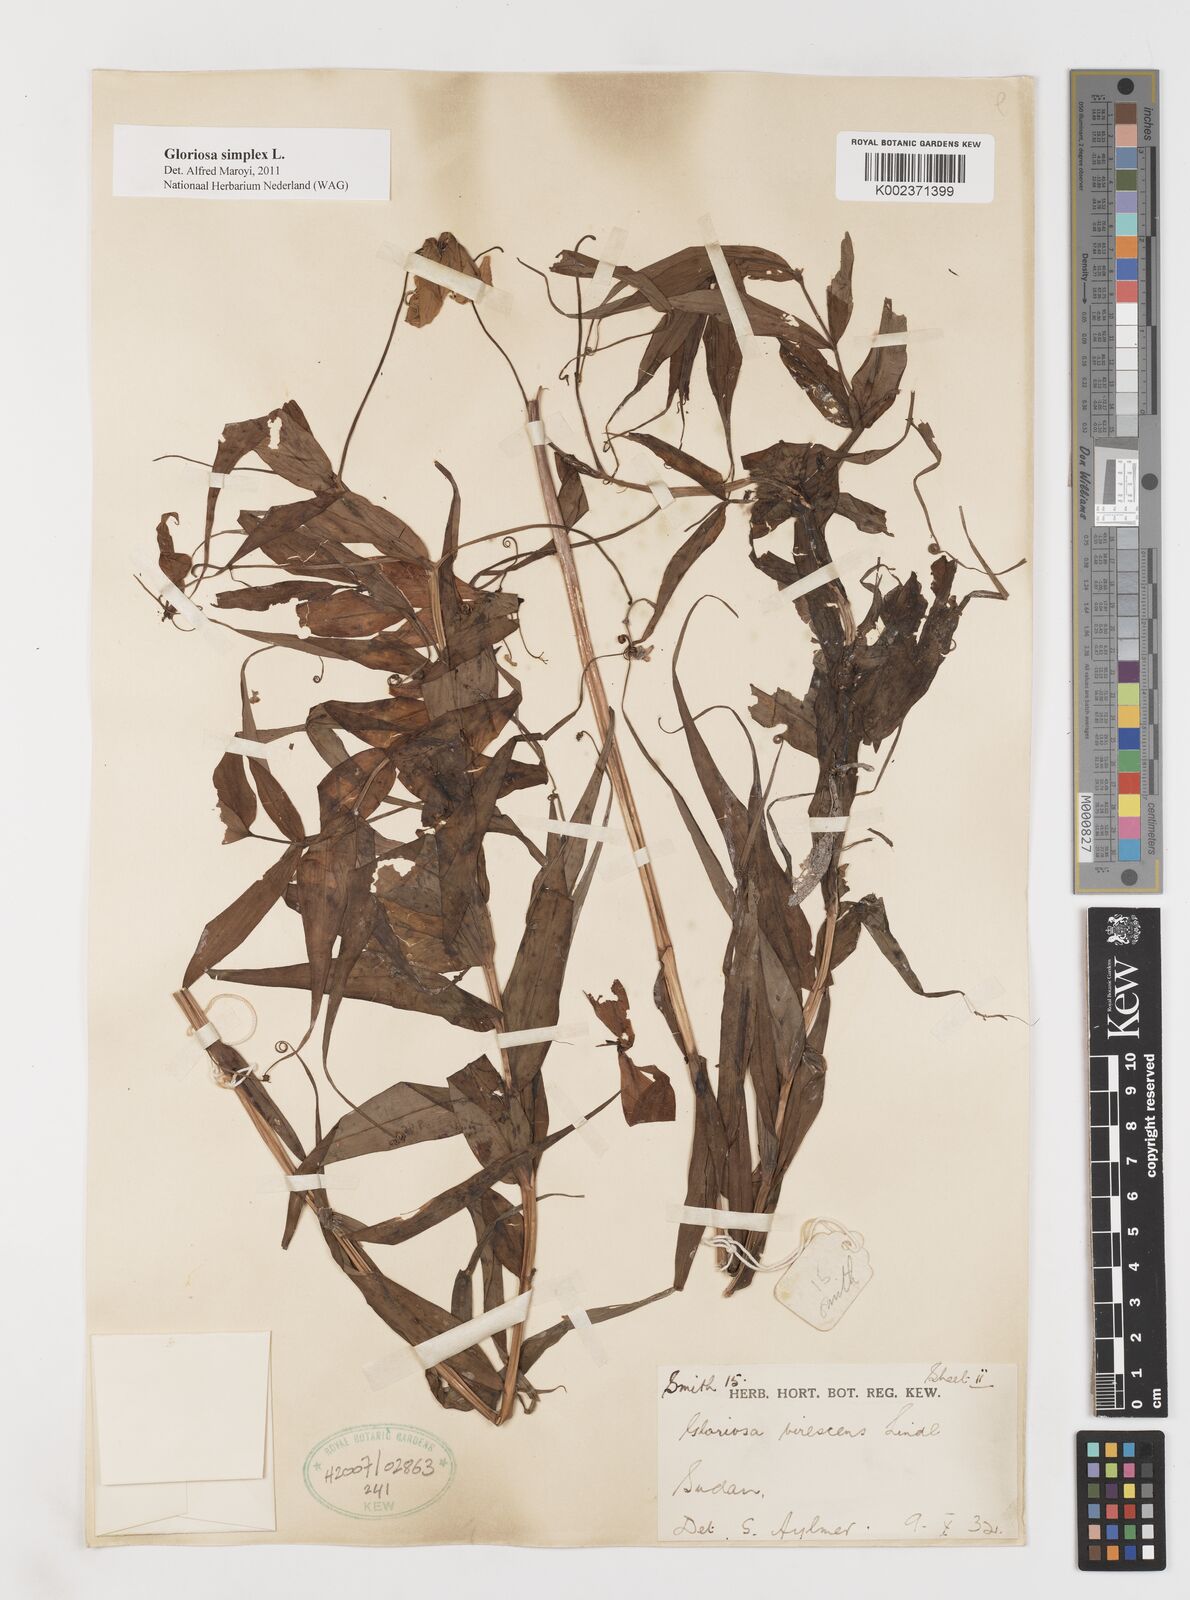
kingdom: Plantae
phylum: Tracheophyta
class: Liliopsida
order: Liliales
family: Colchicaceae
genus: Gloriosa
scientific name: Gloriosa simplex
